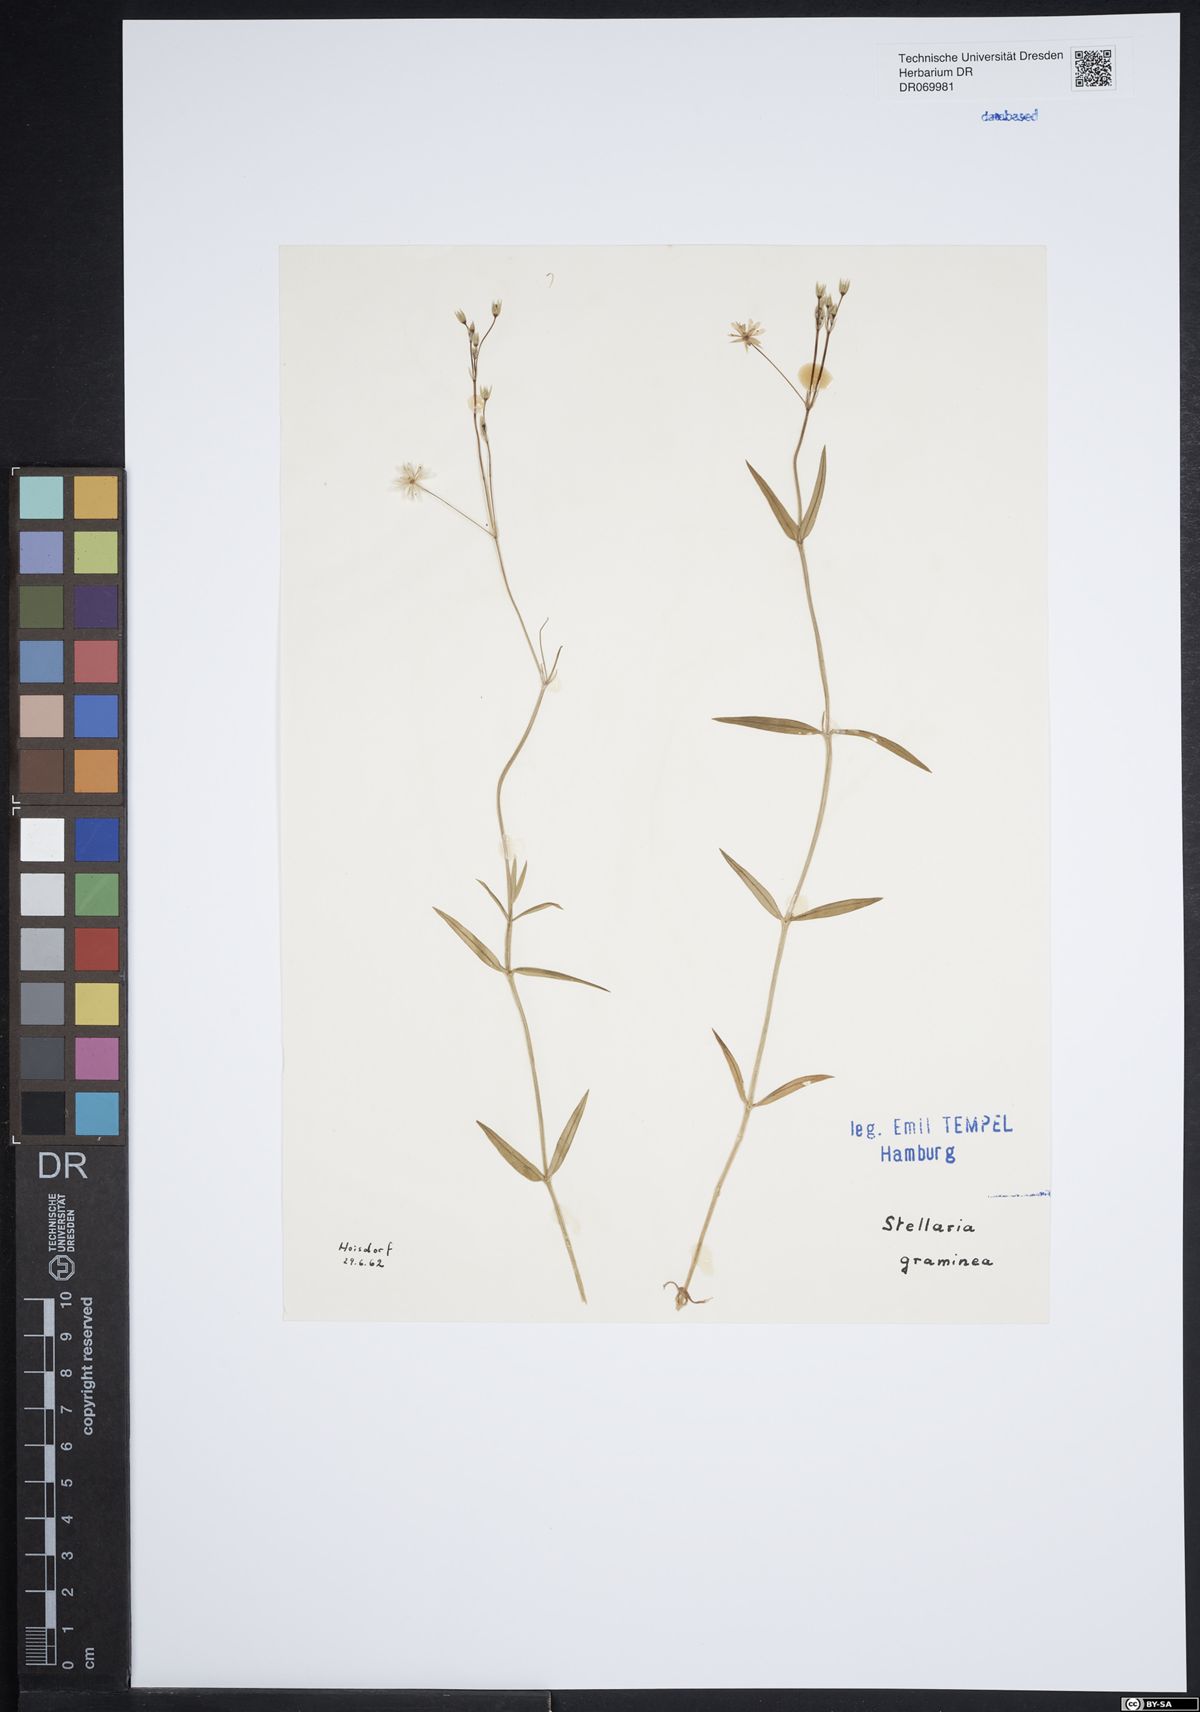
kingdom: Plantae
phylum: Tracheophyta
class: Magnoliopsida
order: Caryophyllales
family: Caryophyllaceae
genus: Stellaria
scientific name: Stellaria graminea
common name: Grass-like starwort
